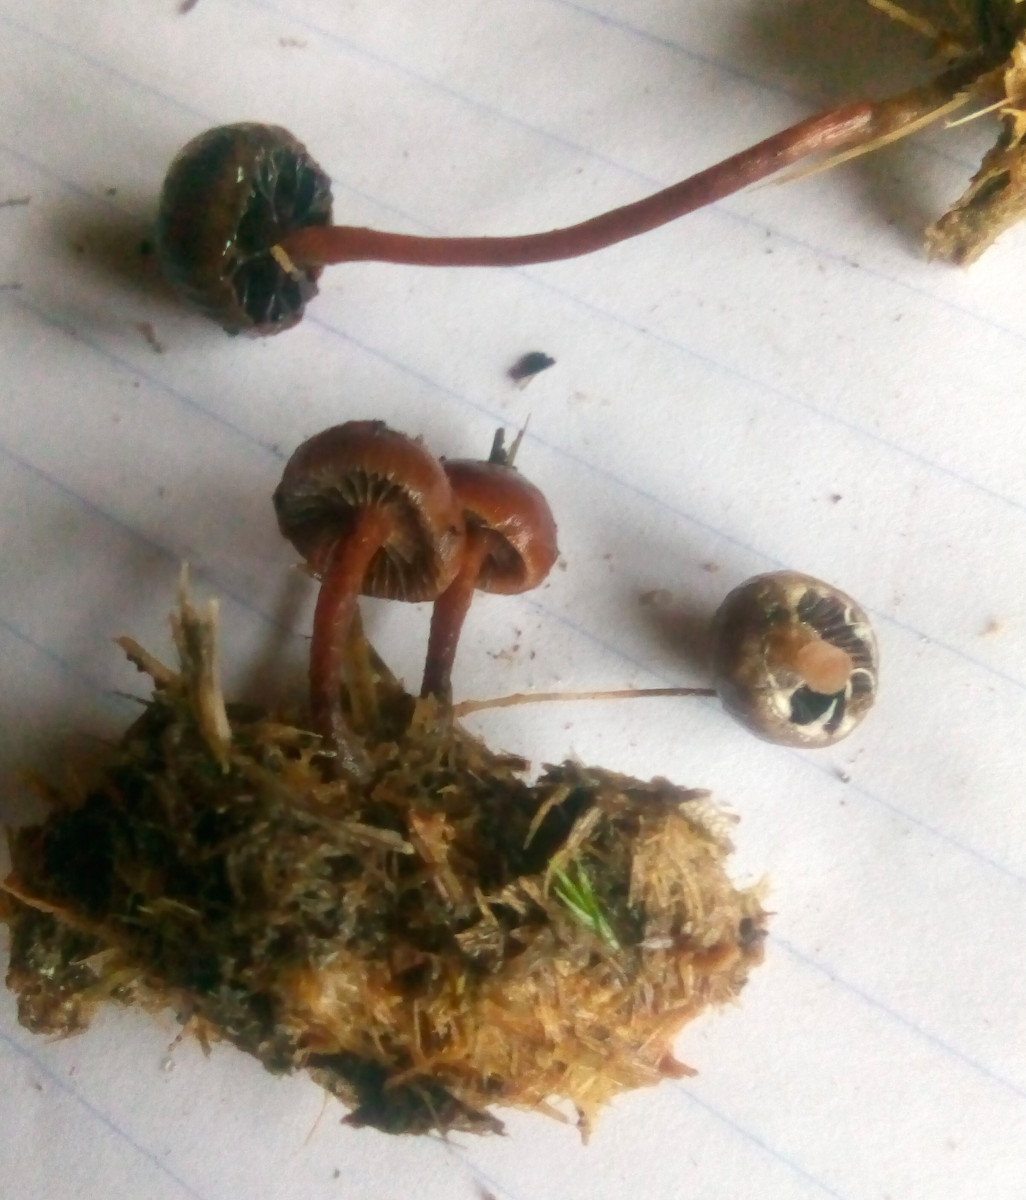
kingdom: Fungi
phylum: Basidiomycota
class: Agaricomycetes
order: Agaricales
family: Strophariaceae
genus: Deconica
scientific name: Deconica coprophila
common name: gødnings-stråhat
